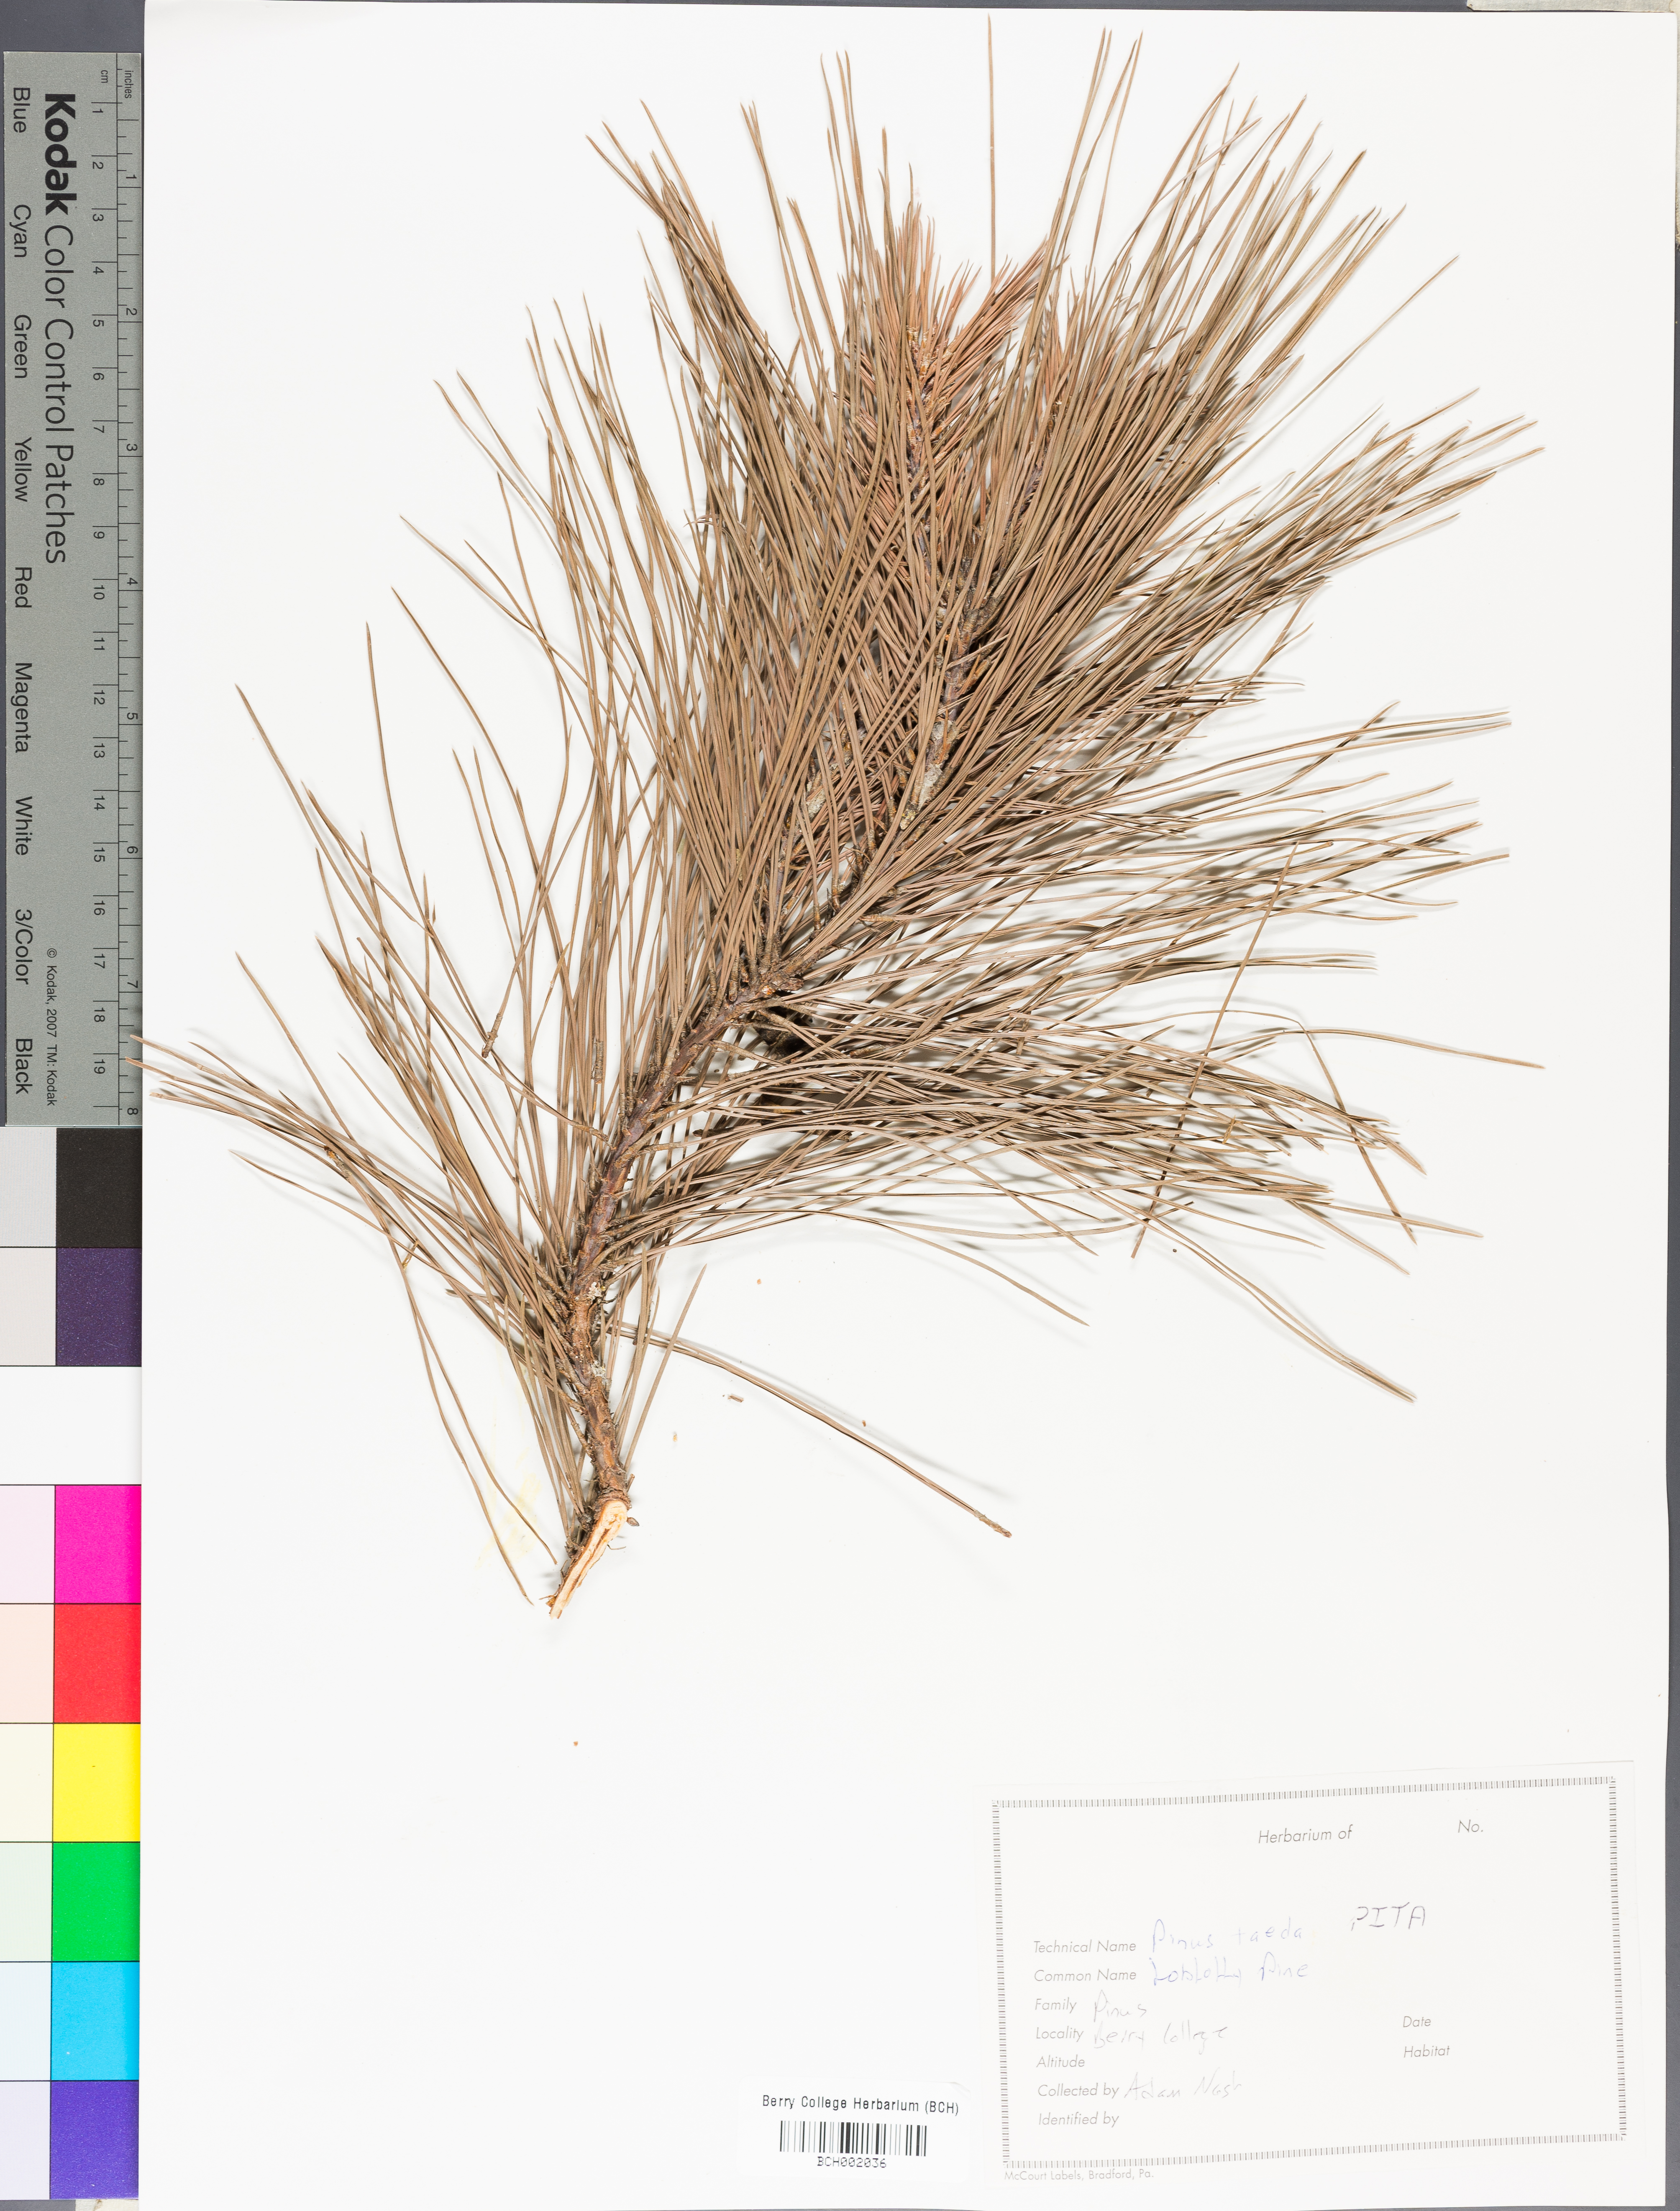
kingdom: Plantae
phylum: Tracheophyta
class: Pinopsida
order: Pinales
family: Pinaceae
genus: Pinus
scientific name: Pinus taeda
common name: Loblolly pine
